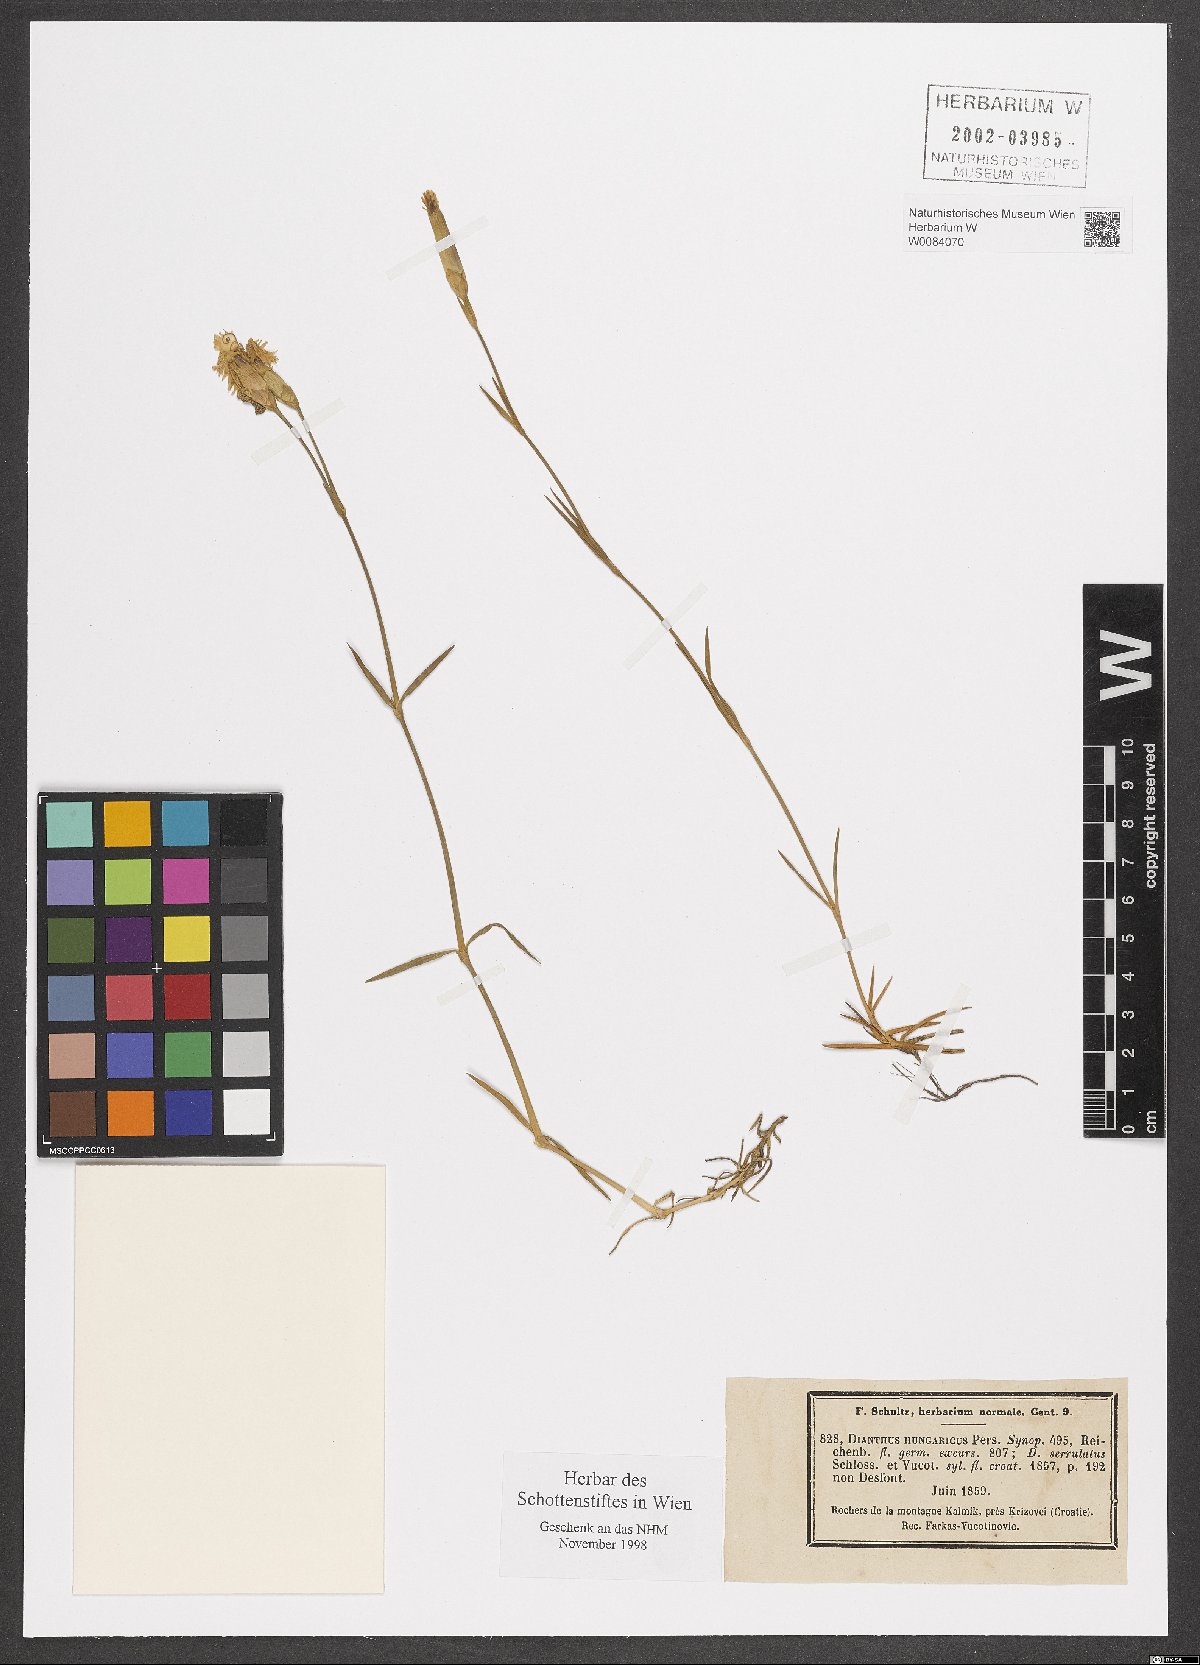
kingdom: Plantae
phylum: Tracheophyta
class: Magnoliopsida
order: Caryophyllales
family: Caryophyllaceae
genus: Dianthus
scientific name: Dianthus plumarius
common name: Pink
